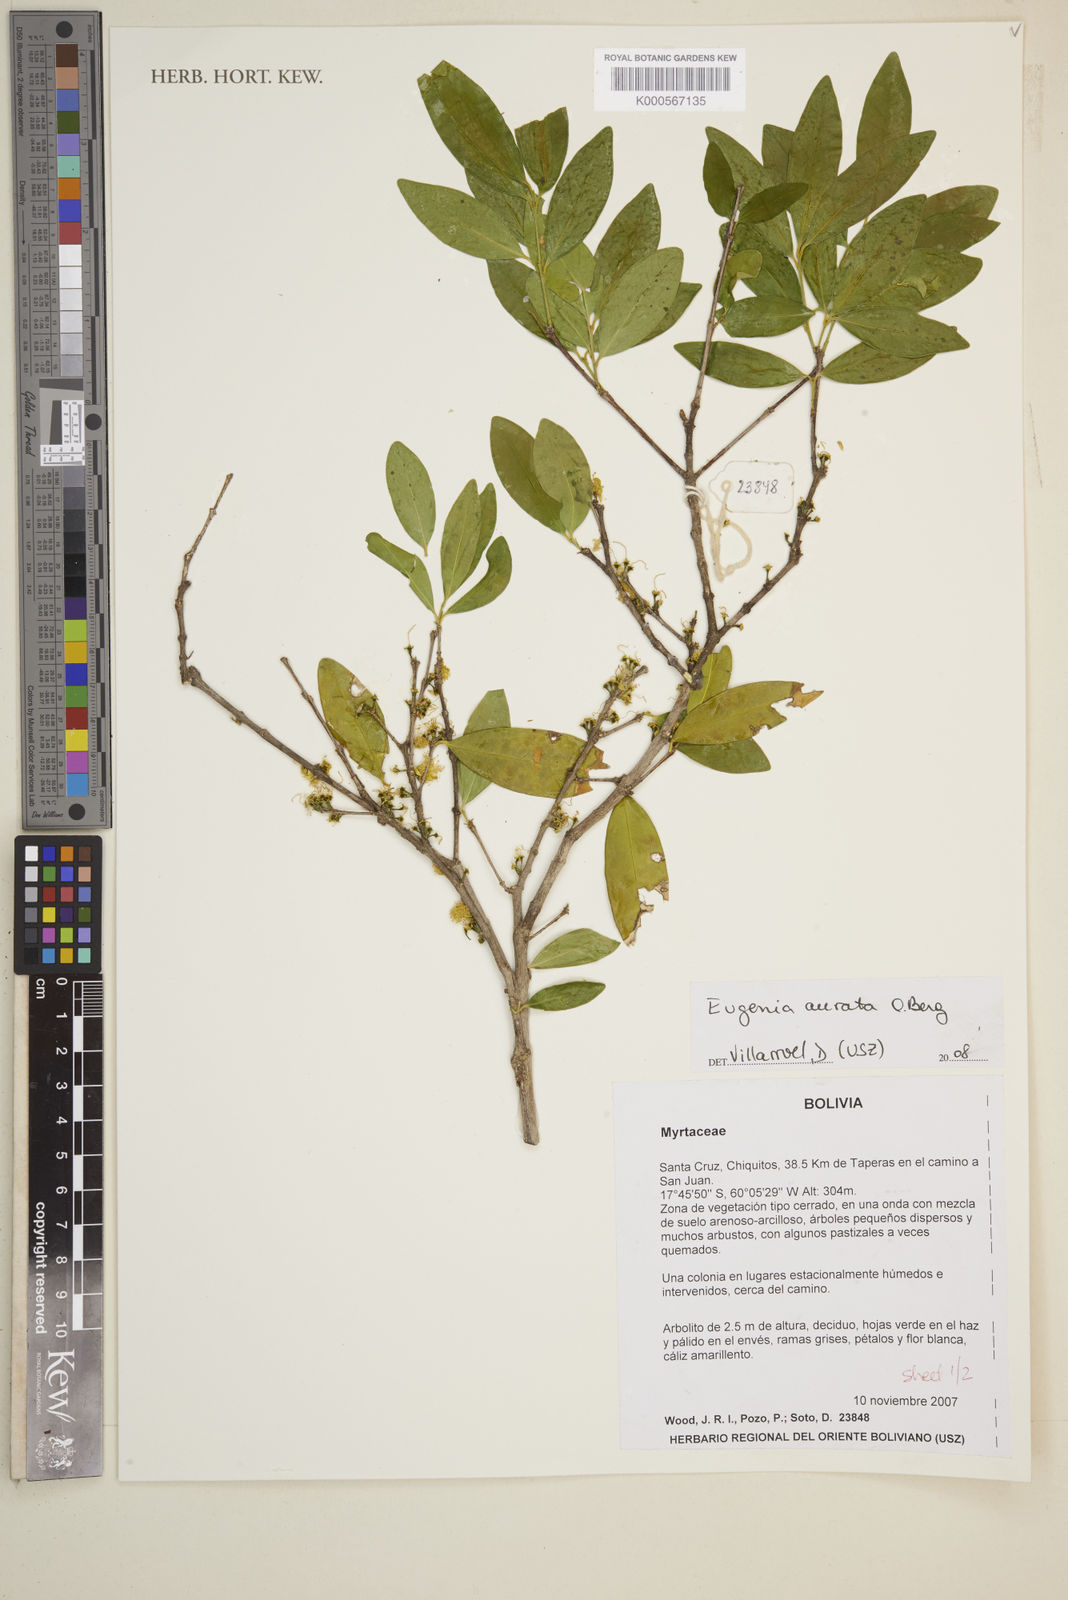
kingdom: Plantae
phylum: Tracheophyta
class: Magnoliopsida
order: Myrtales
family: Myrtaceae
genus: Eugenia
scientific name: Eugenia aurata
